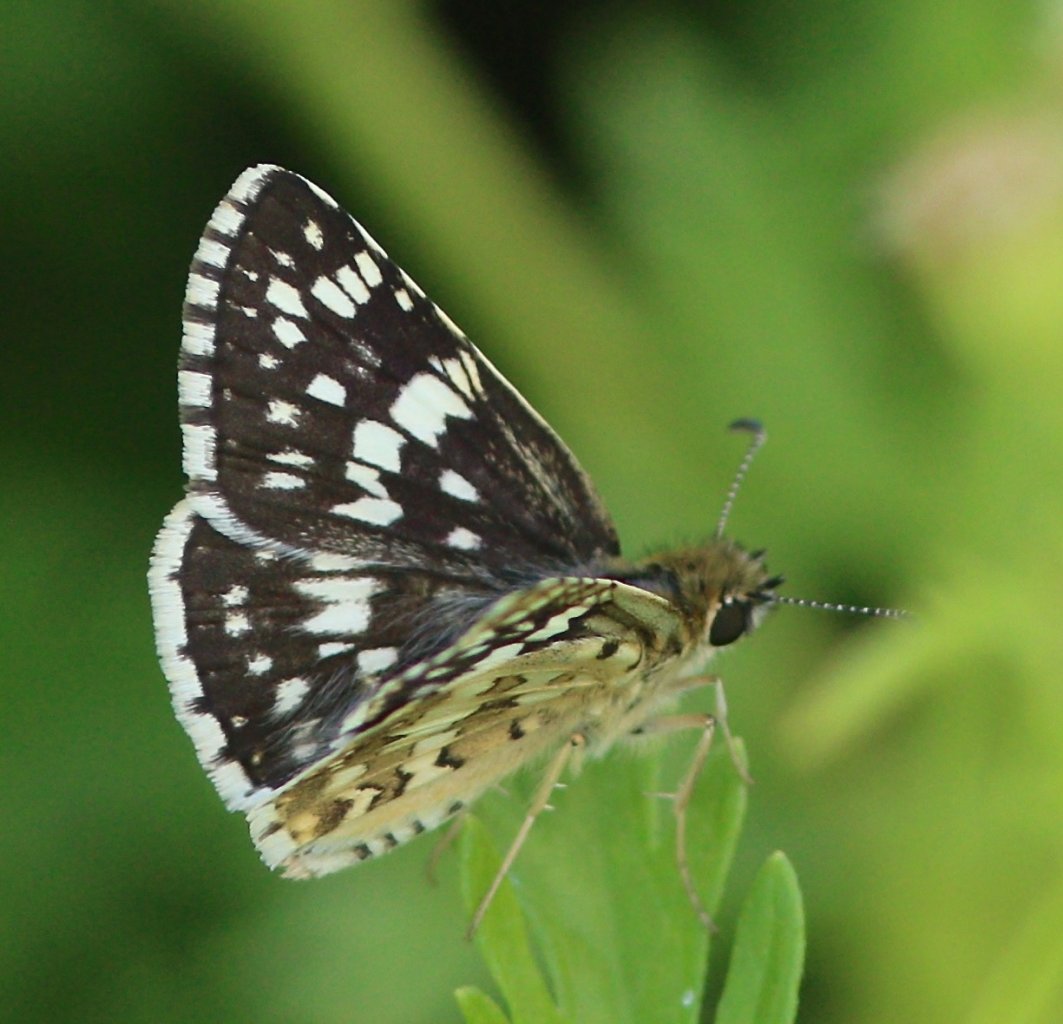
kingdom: Animalia
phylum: Arthropoda
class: Insecta
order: Lepidoptera
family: Hesperiidae
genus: Pyrgus
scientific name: Pyrgus communis
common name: White Checkered-Skipper
